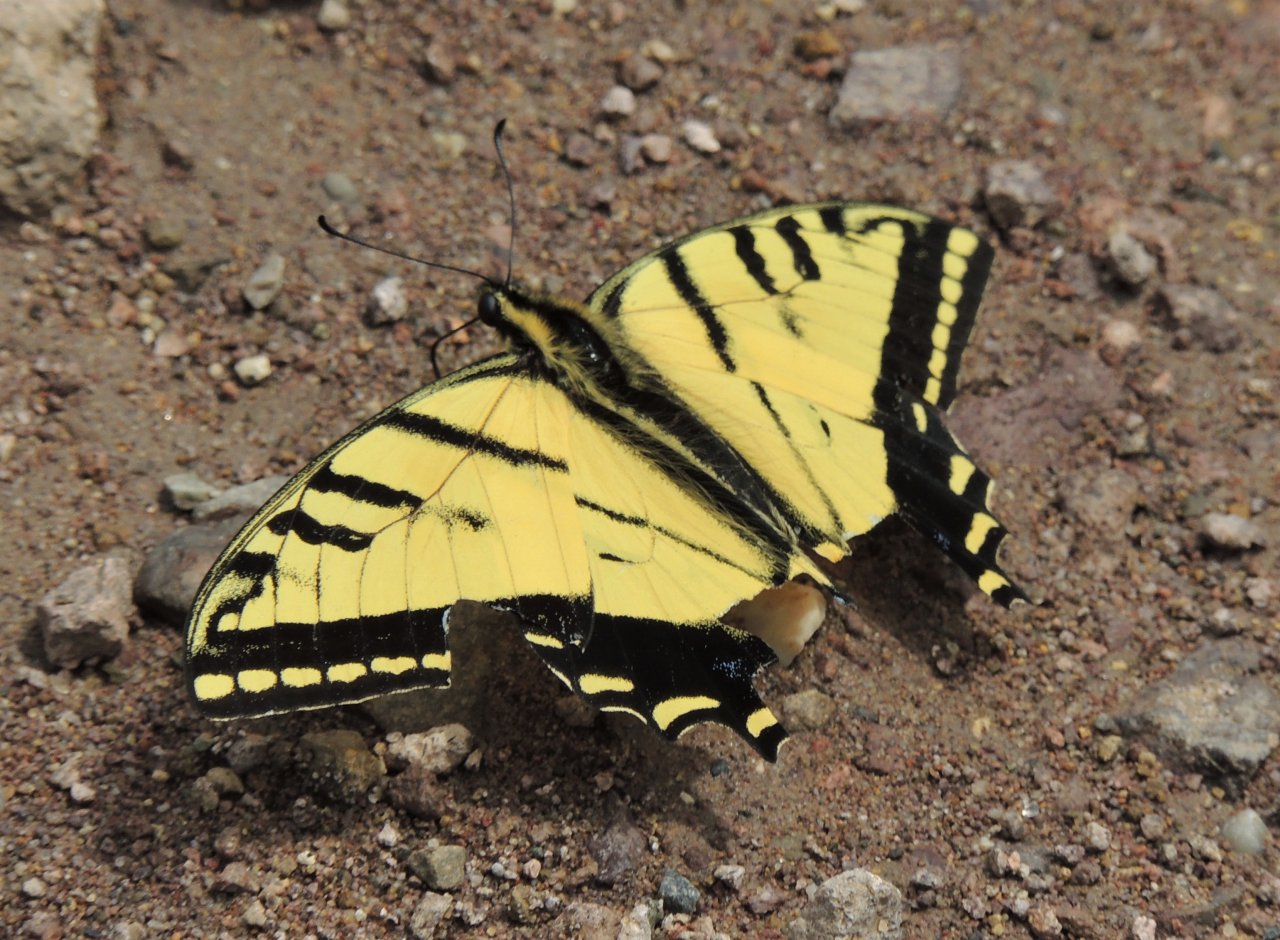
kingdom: Animalia
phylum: Arthropoda
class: Insecta
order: Lepidoptera
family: Papilionidae
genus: Papilio
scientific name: Papilio multicaudata
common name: Two-tailed Swallowtail
